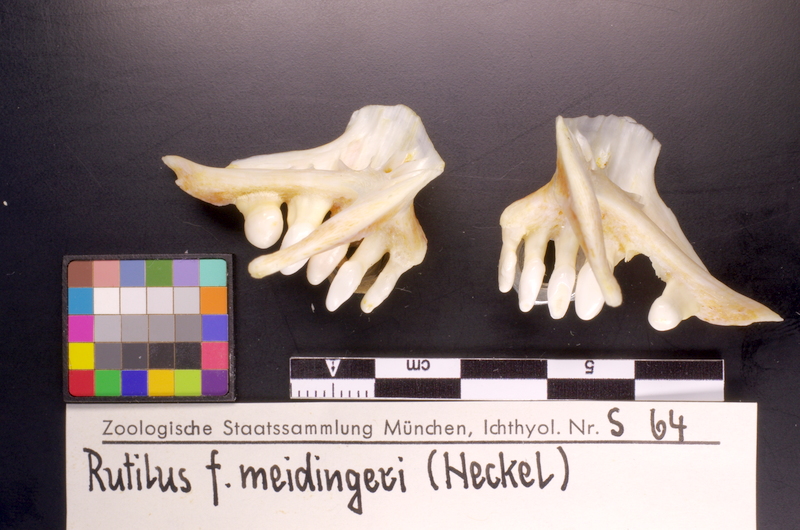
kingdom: Animalia
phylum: Chordata
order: Cypriniformes
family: Cyprinidae
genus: Rutilus
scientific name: Rutilus meidingeri
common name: Perlfisch
